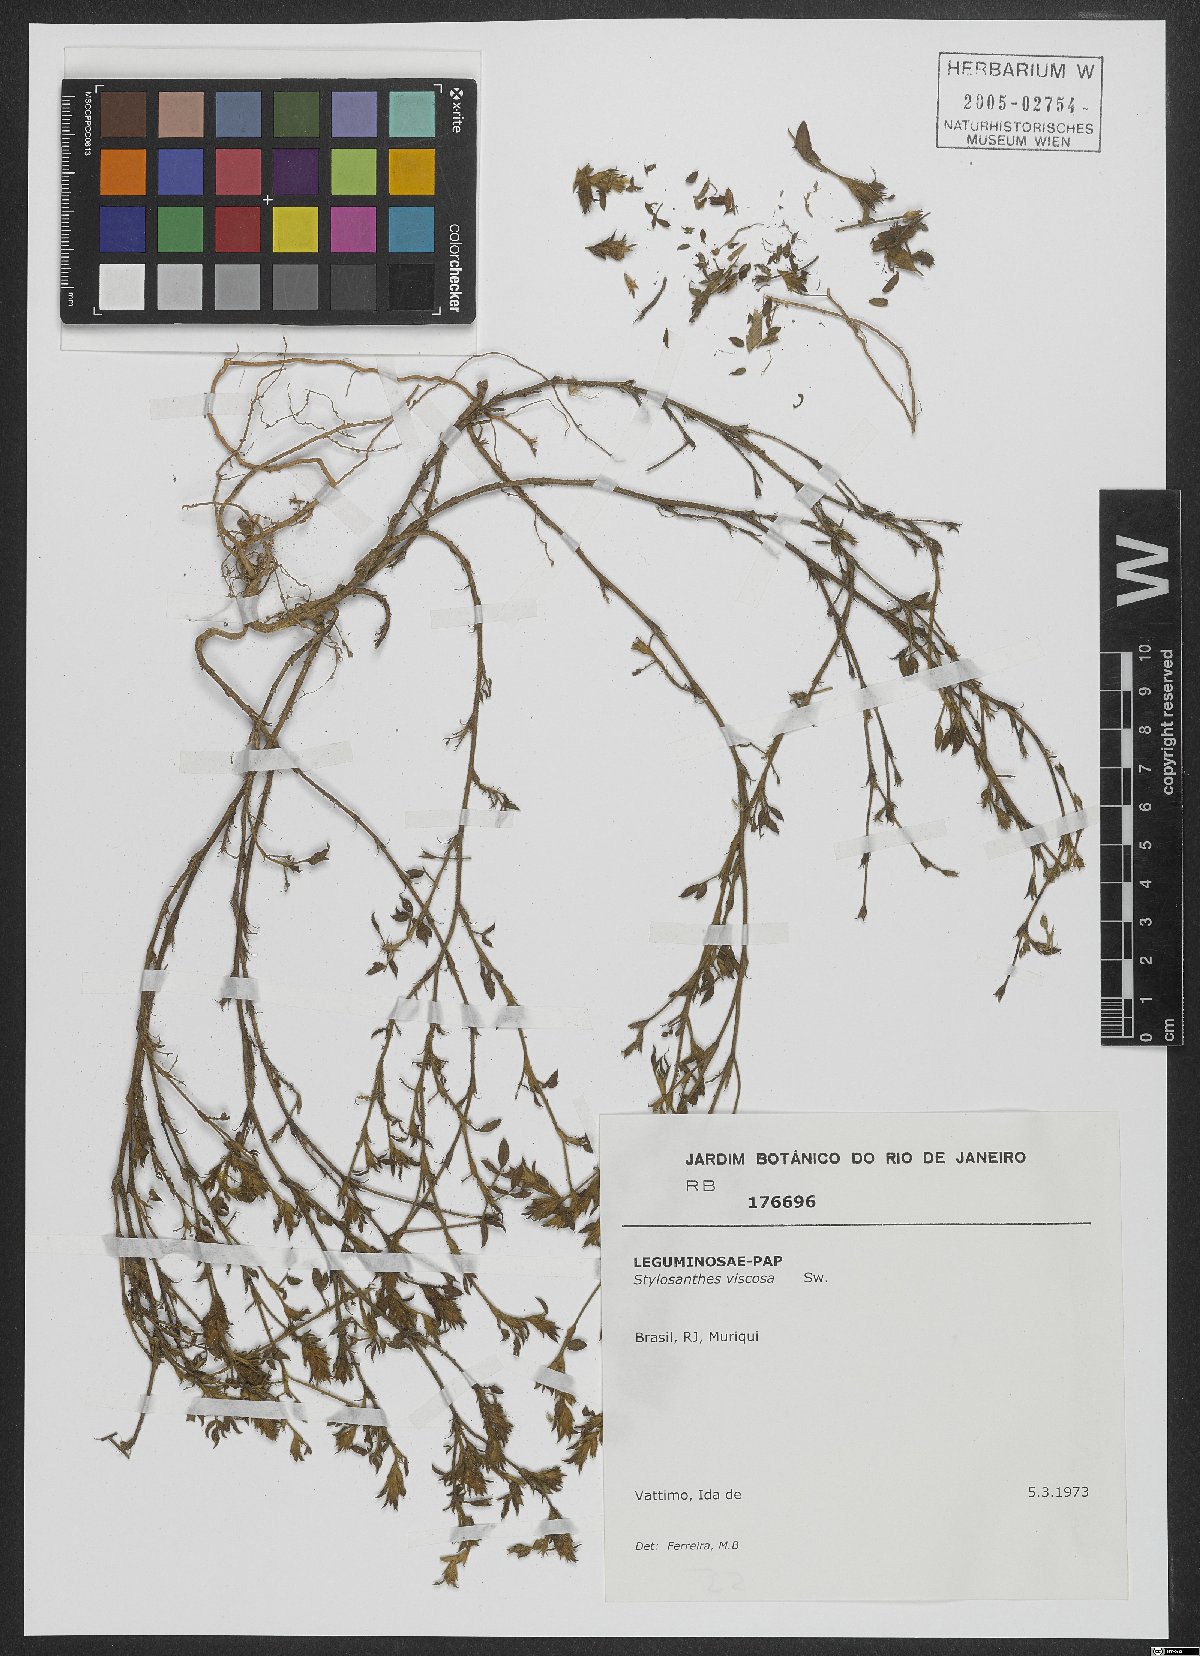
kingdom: Plantae
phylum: Tracheophyta
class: Magnoliopsida
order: Fabales
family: Fabaceae
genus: Stylosanthes
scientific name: Stylosanthes viscosa
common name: Viscid pencil-flower
